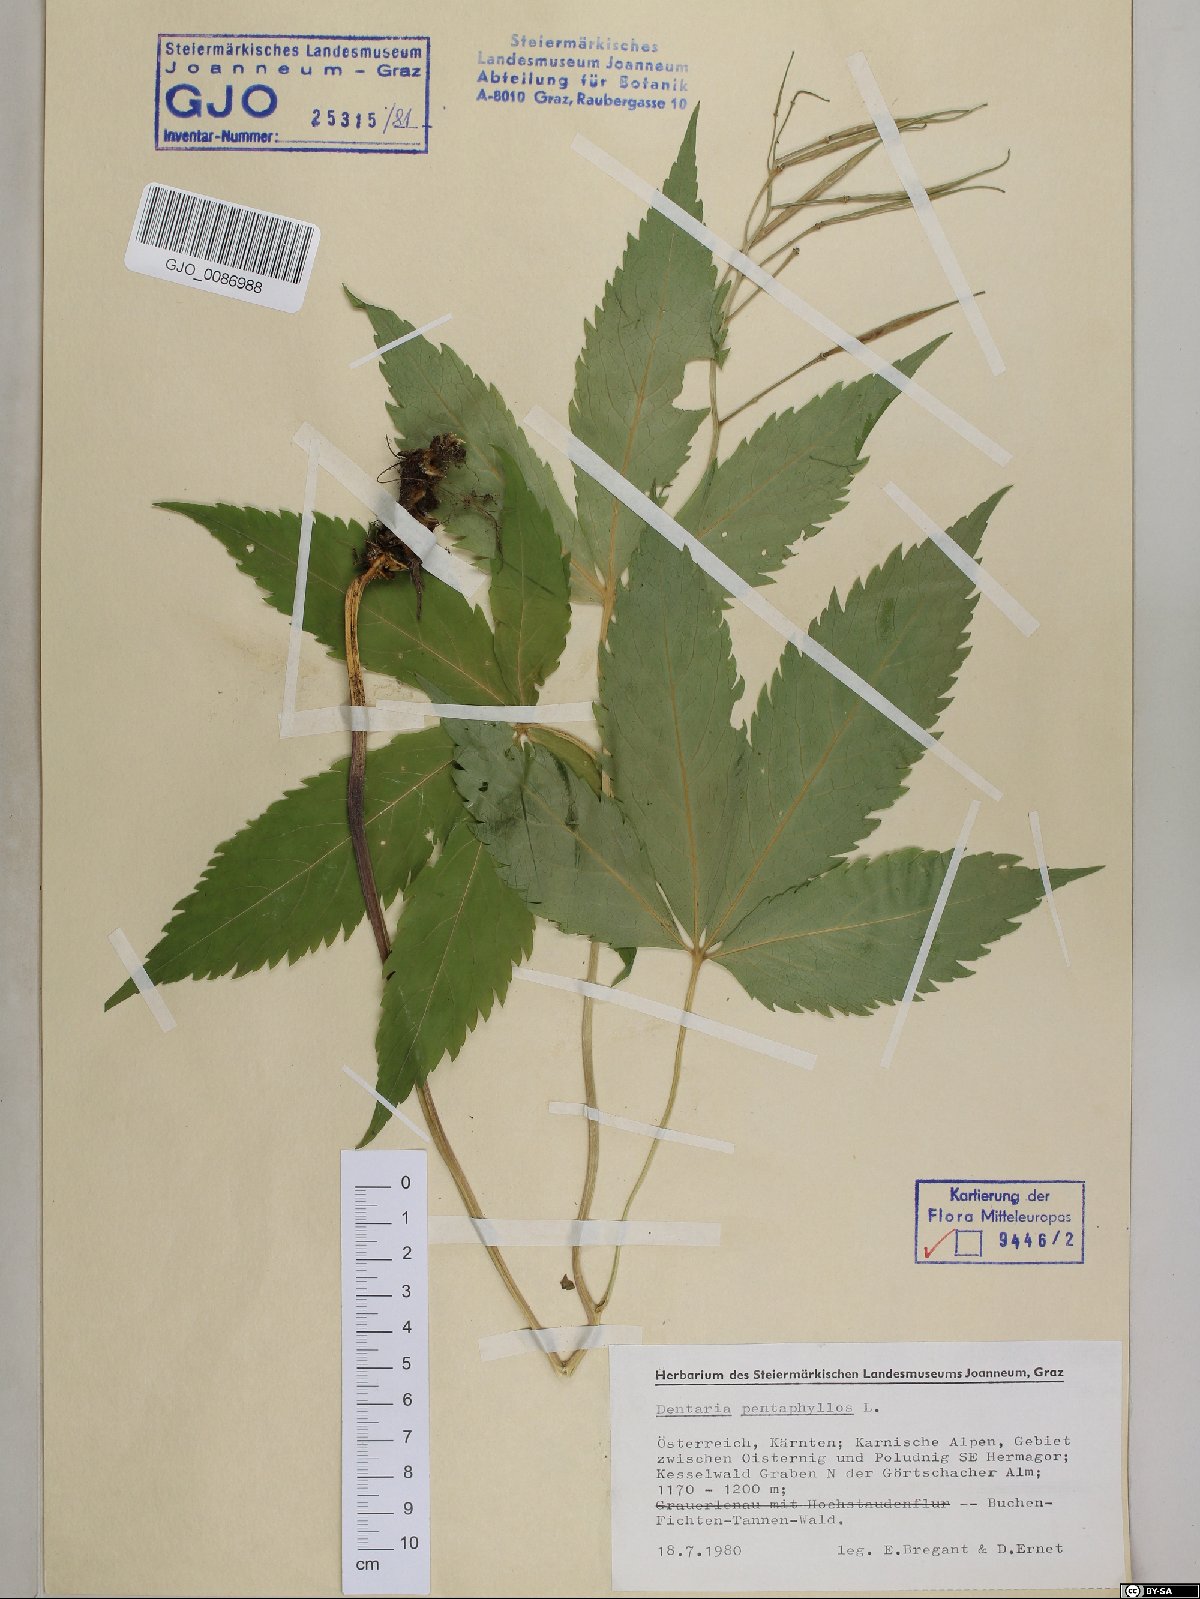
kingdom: Plantae
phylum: Tracheophyta
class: Magnoliopsida
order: Brassicales
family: Brassicaceae
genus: Cardamine
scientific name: Cardamine pentaphyllos
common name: Five-leaflet bitter-cress
